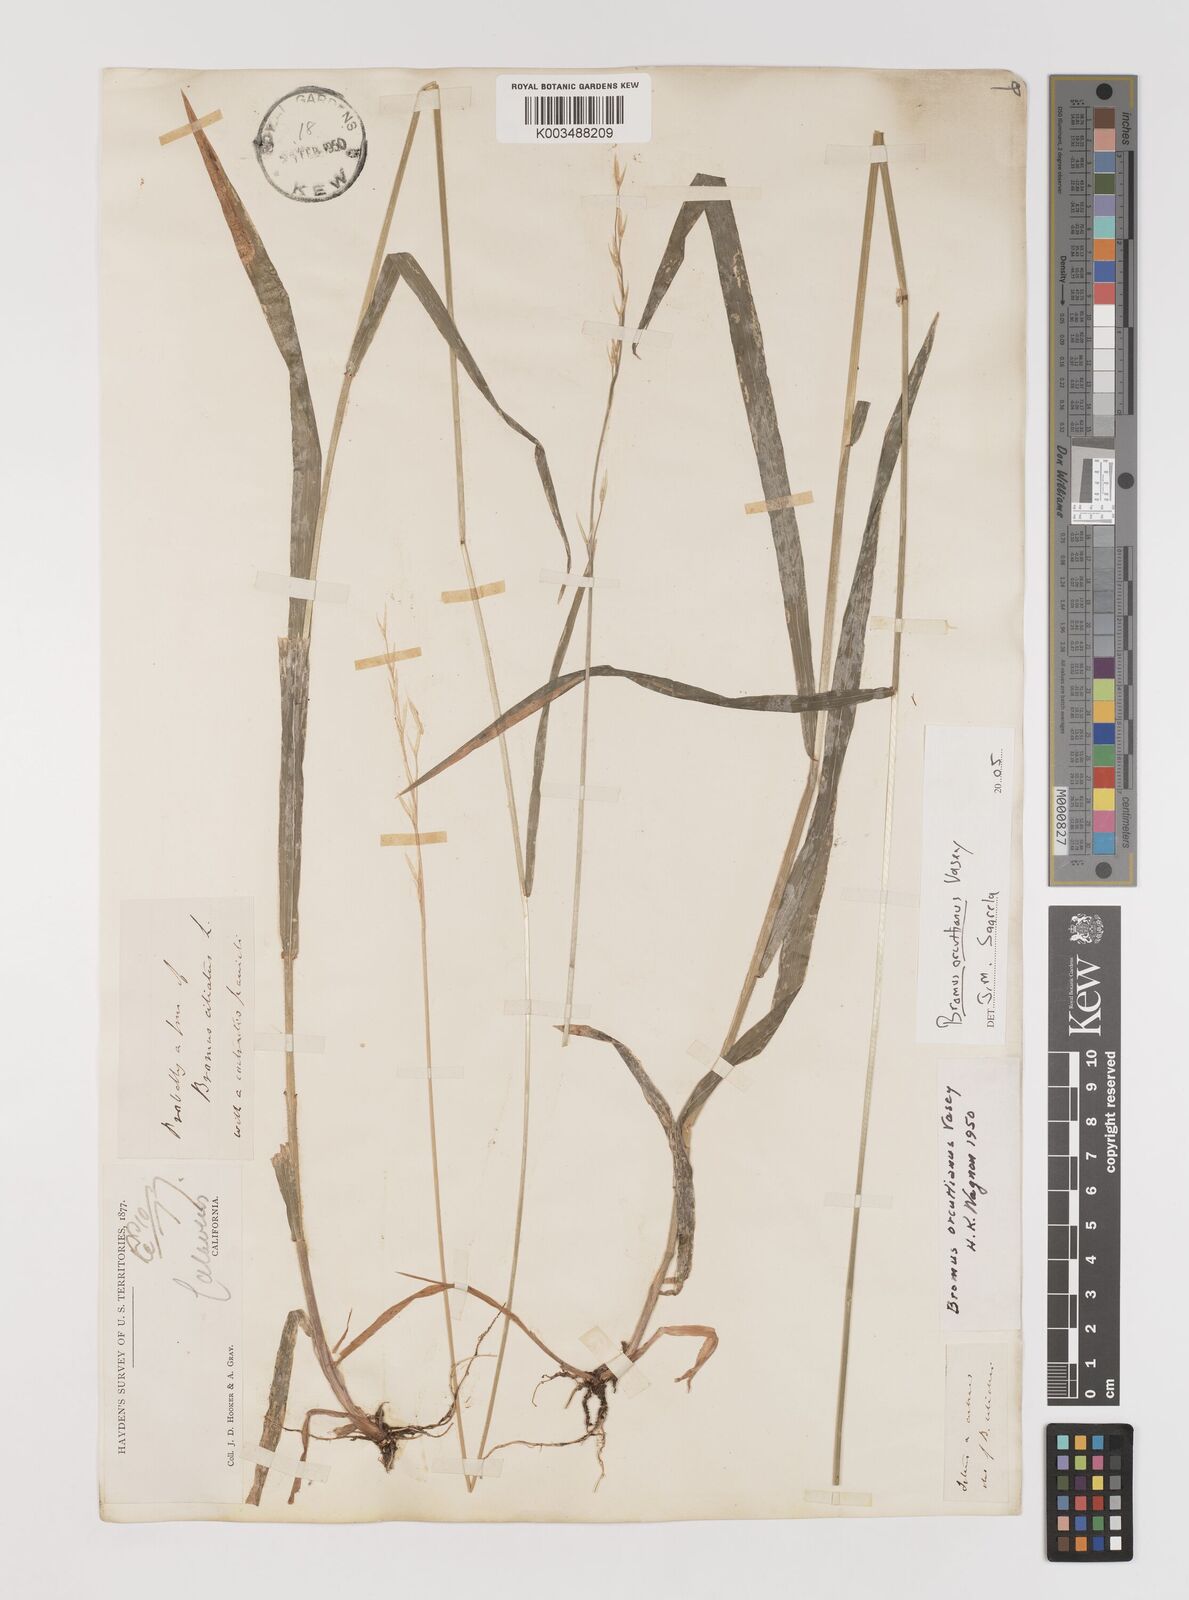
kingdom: Plantae
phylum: Tracheophyta
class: Liliopsida
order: Poales
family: Poaceae
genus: Bromus
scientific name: Bromus orcuttianus
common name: Orcutt's brome
